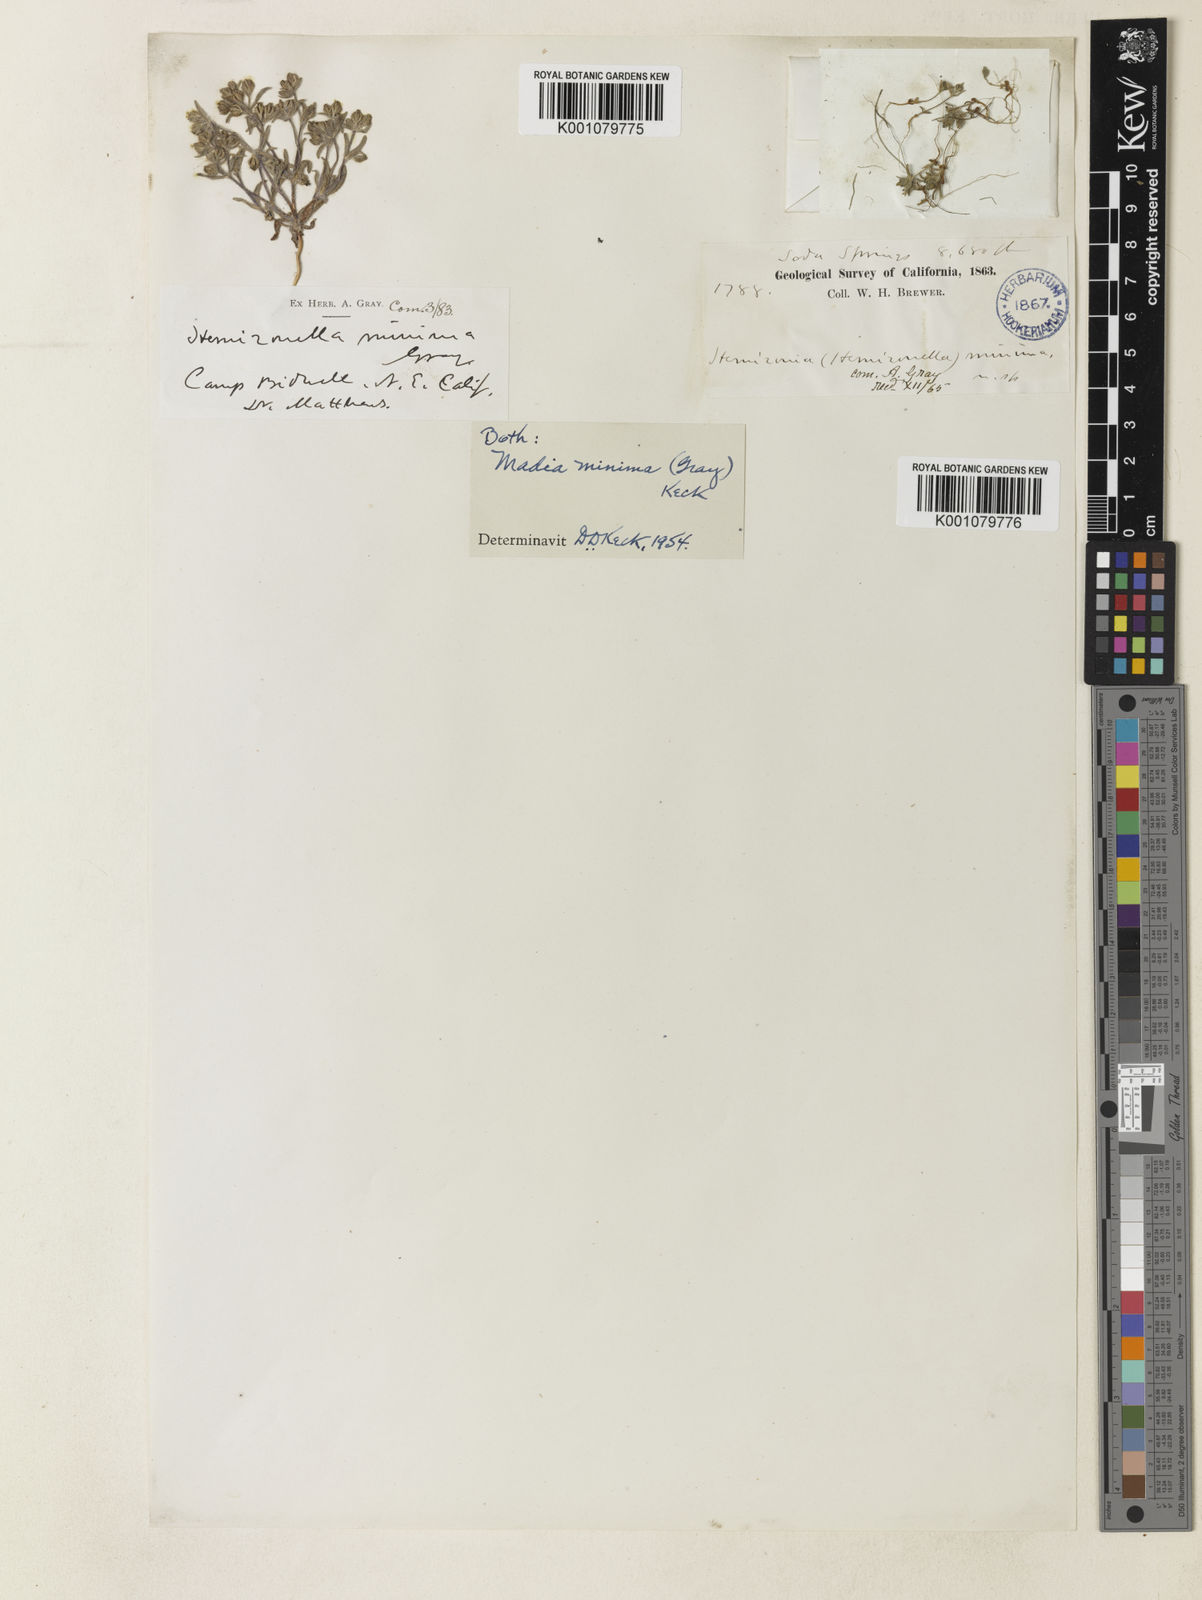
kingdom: Plantae
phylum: Tracheophyta
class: Magnoliopsida
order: Asterales
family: Asteraceae
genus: Hemizonella
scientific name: Hemizonella minima
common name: Opposite-leaved tarweed
